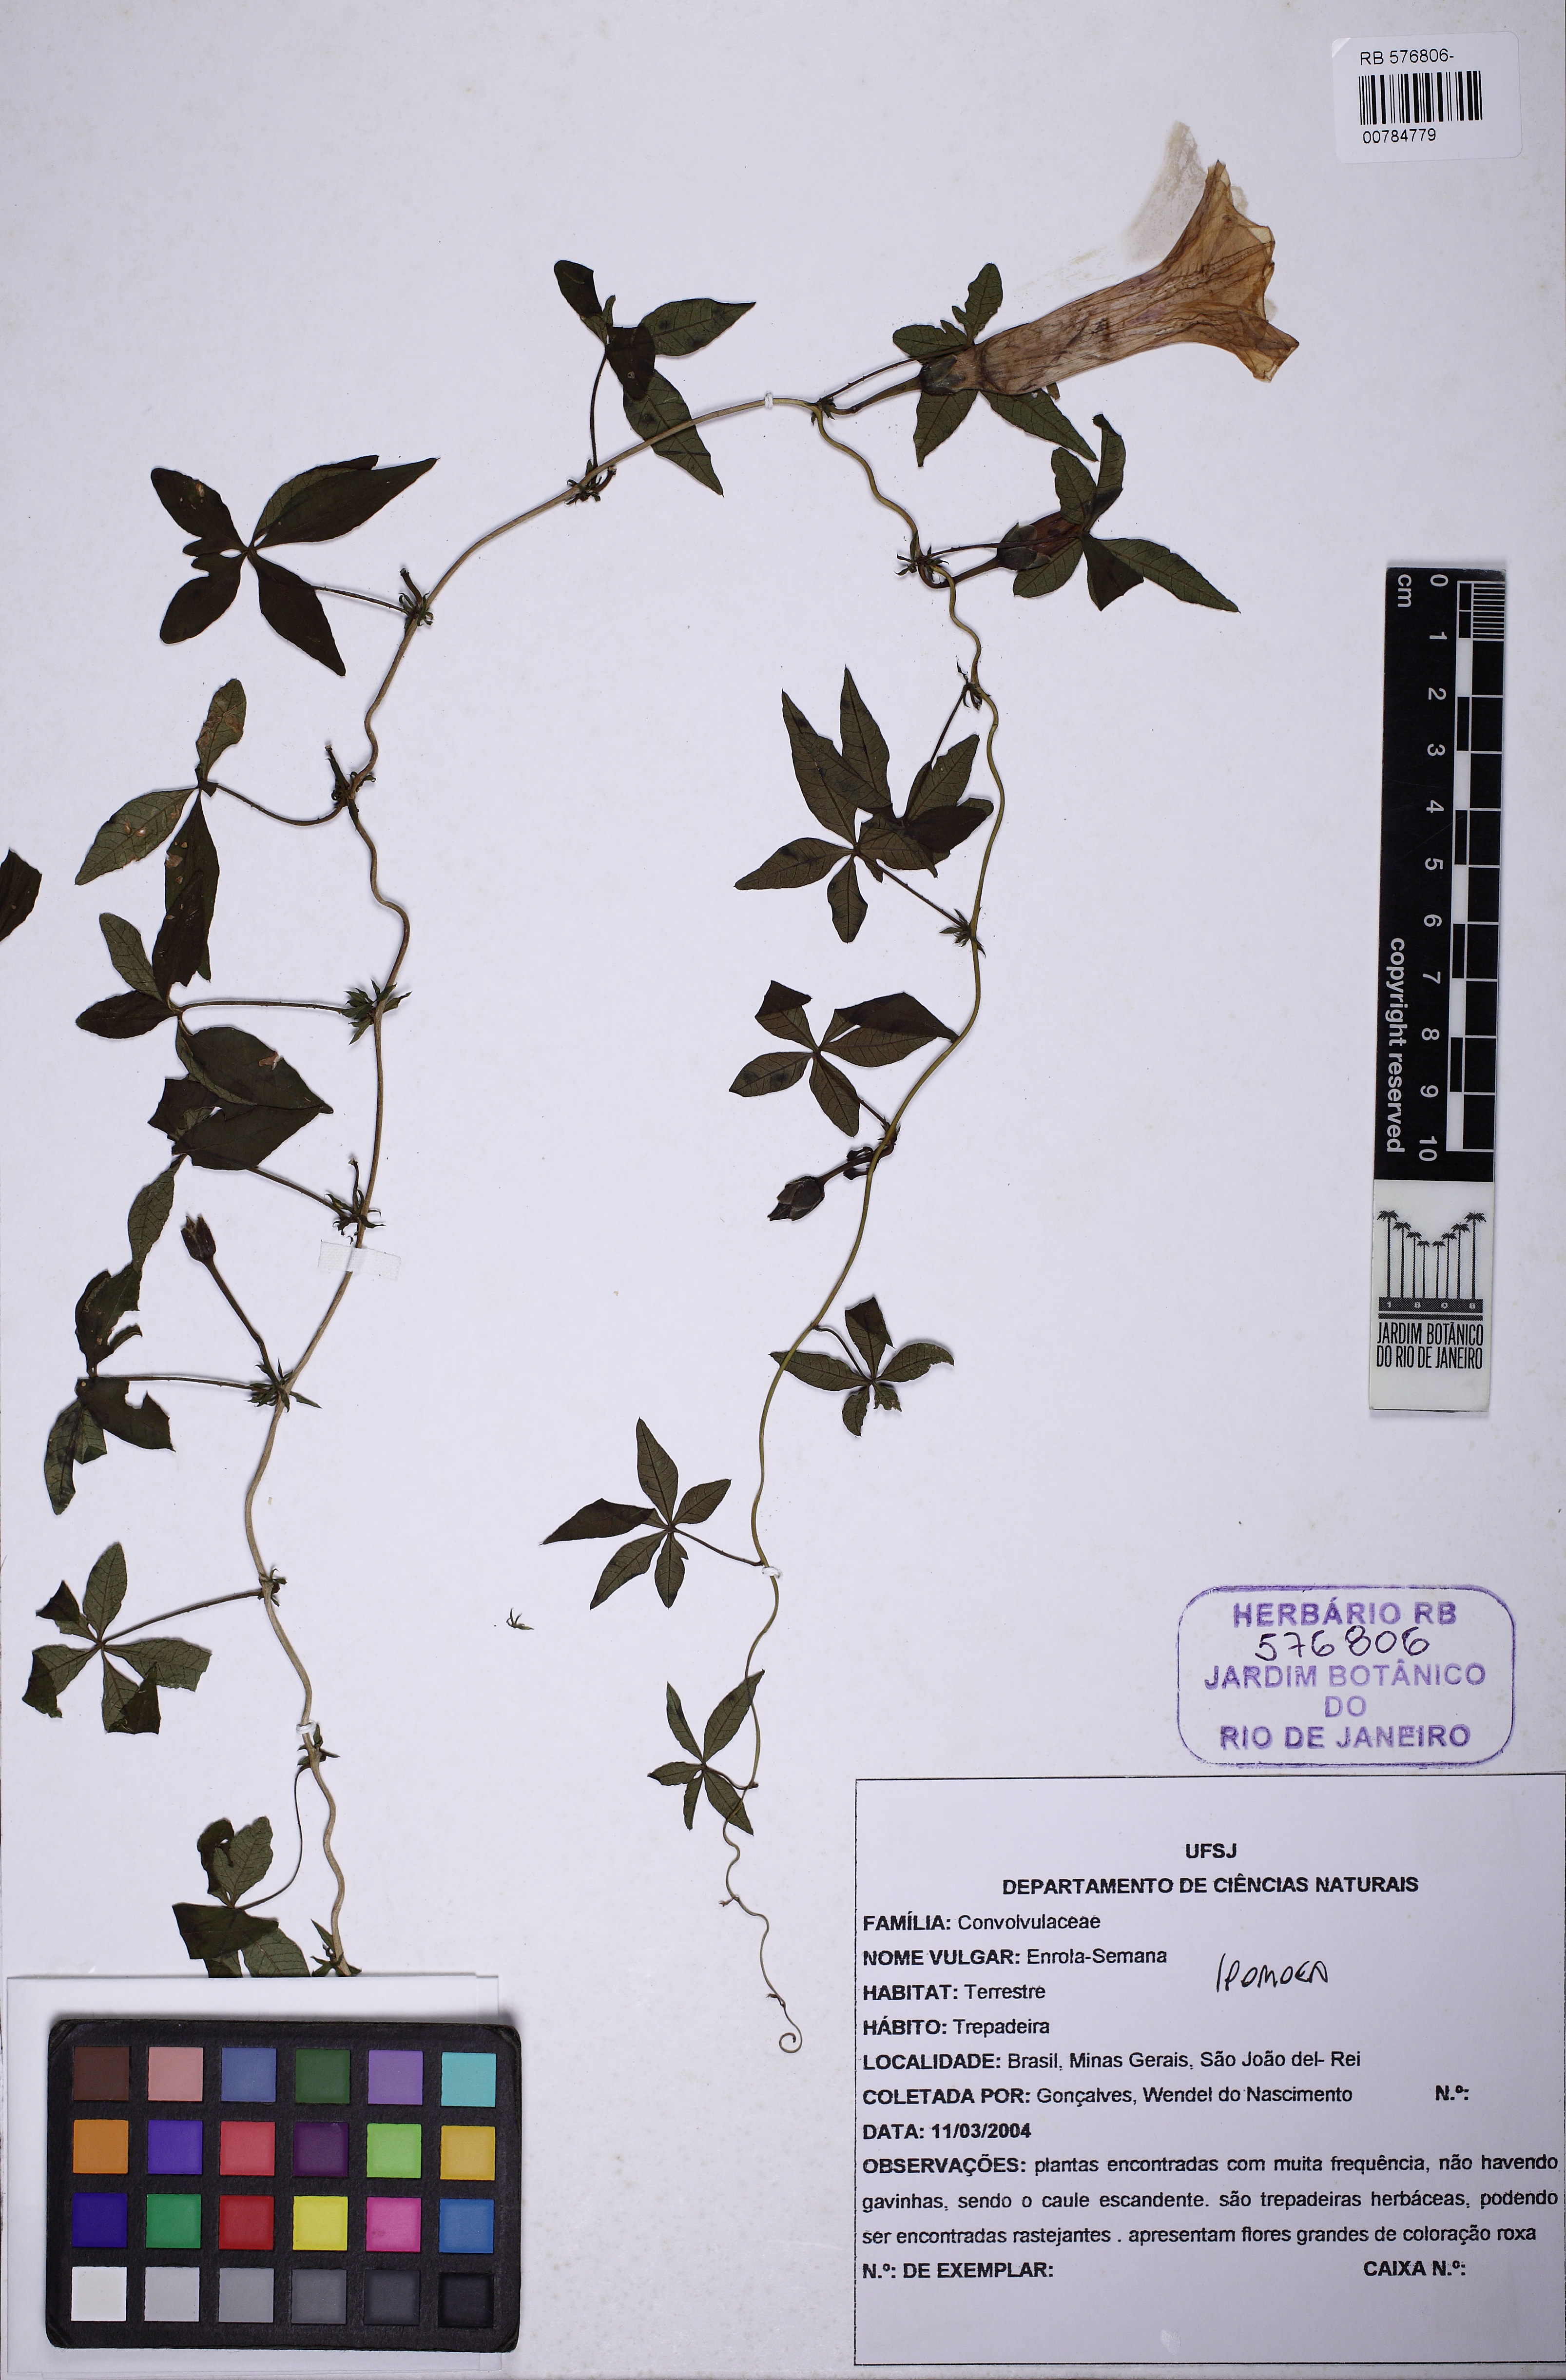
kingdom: Plantae
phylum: Tracheophyta
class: Magnoliopsida
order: Solanales
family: Convolvulaceae
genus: Ipomoea
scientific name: Ipomoea cairica
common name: Mile a minute vine
